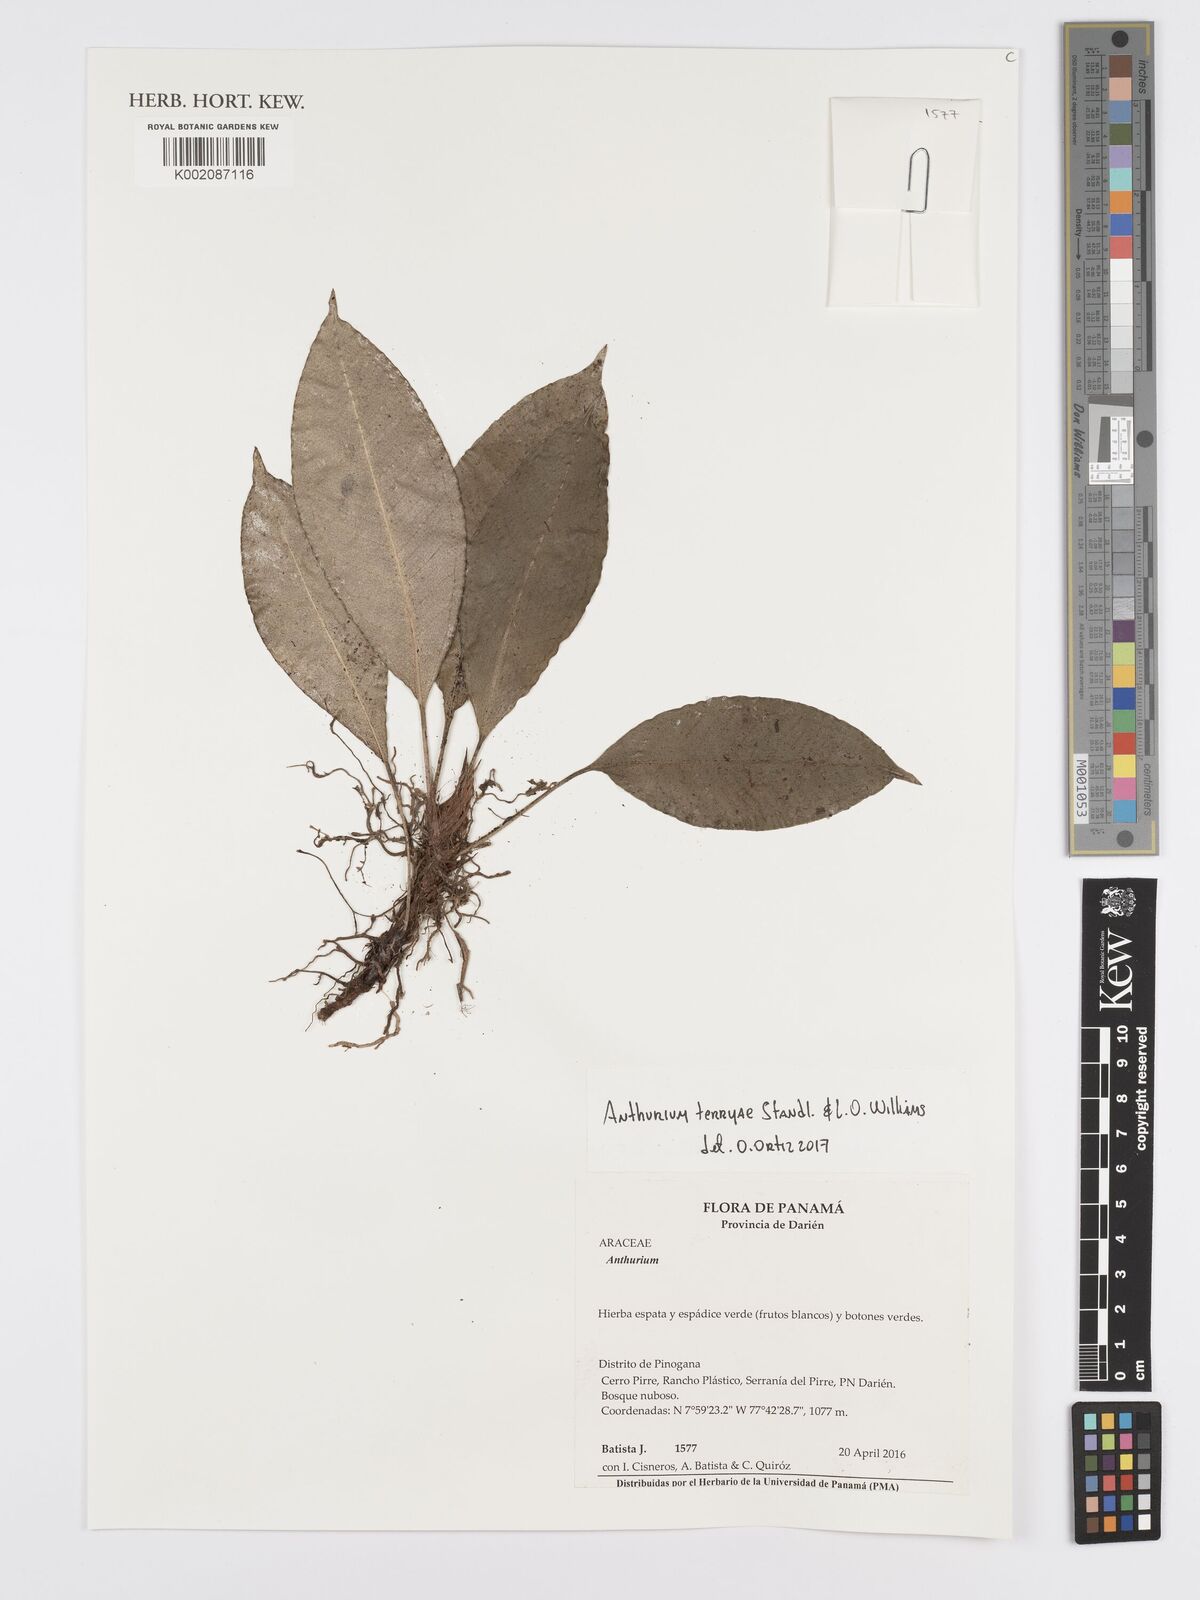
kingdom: Plantae
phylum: Tracheophyta
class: Liliopsida
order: Alismatales
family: Araceae
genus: Anthurium
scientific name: Anthurium terryae
